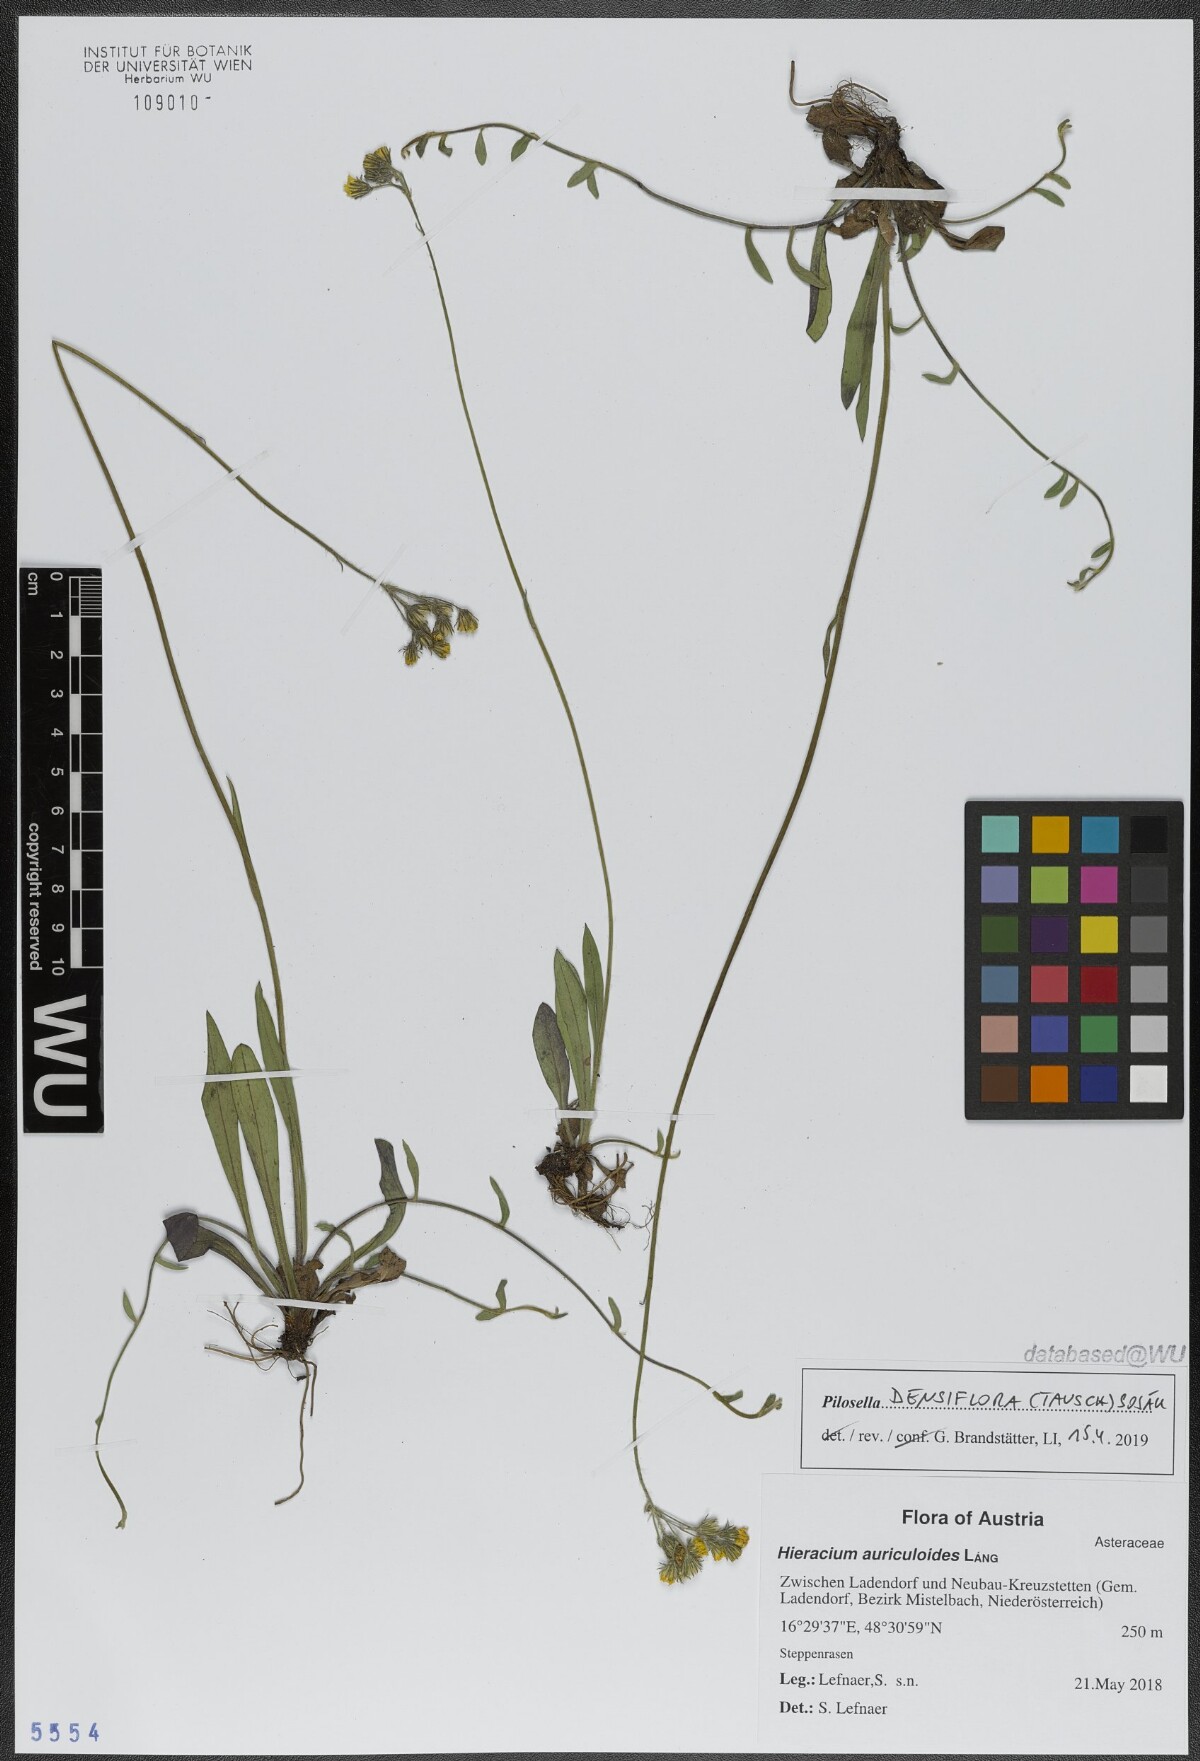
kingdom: Plantae
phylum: Tracheophyta
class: Magnoliopsida
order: Asterales
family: Asteraceae
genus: Pilosella
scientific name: Pilosella densiflora
